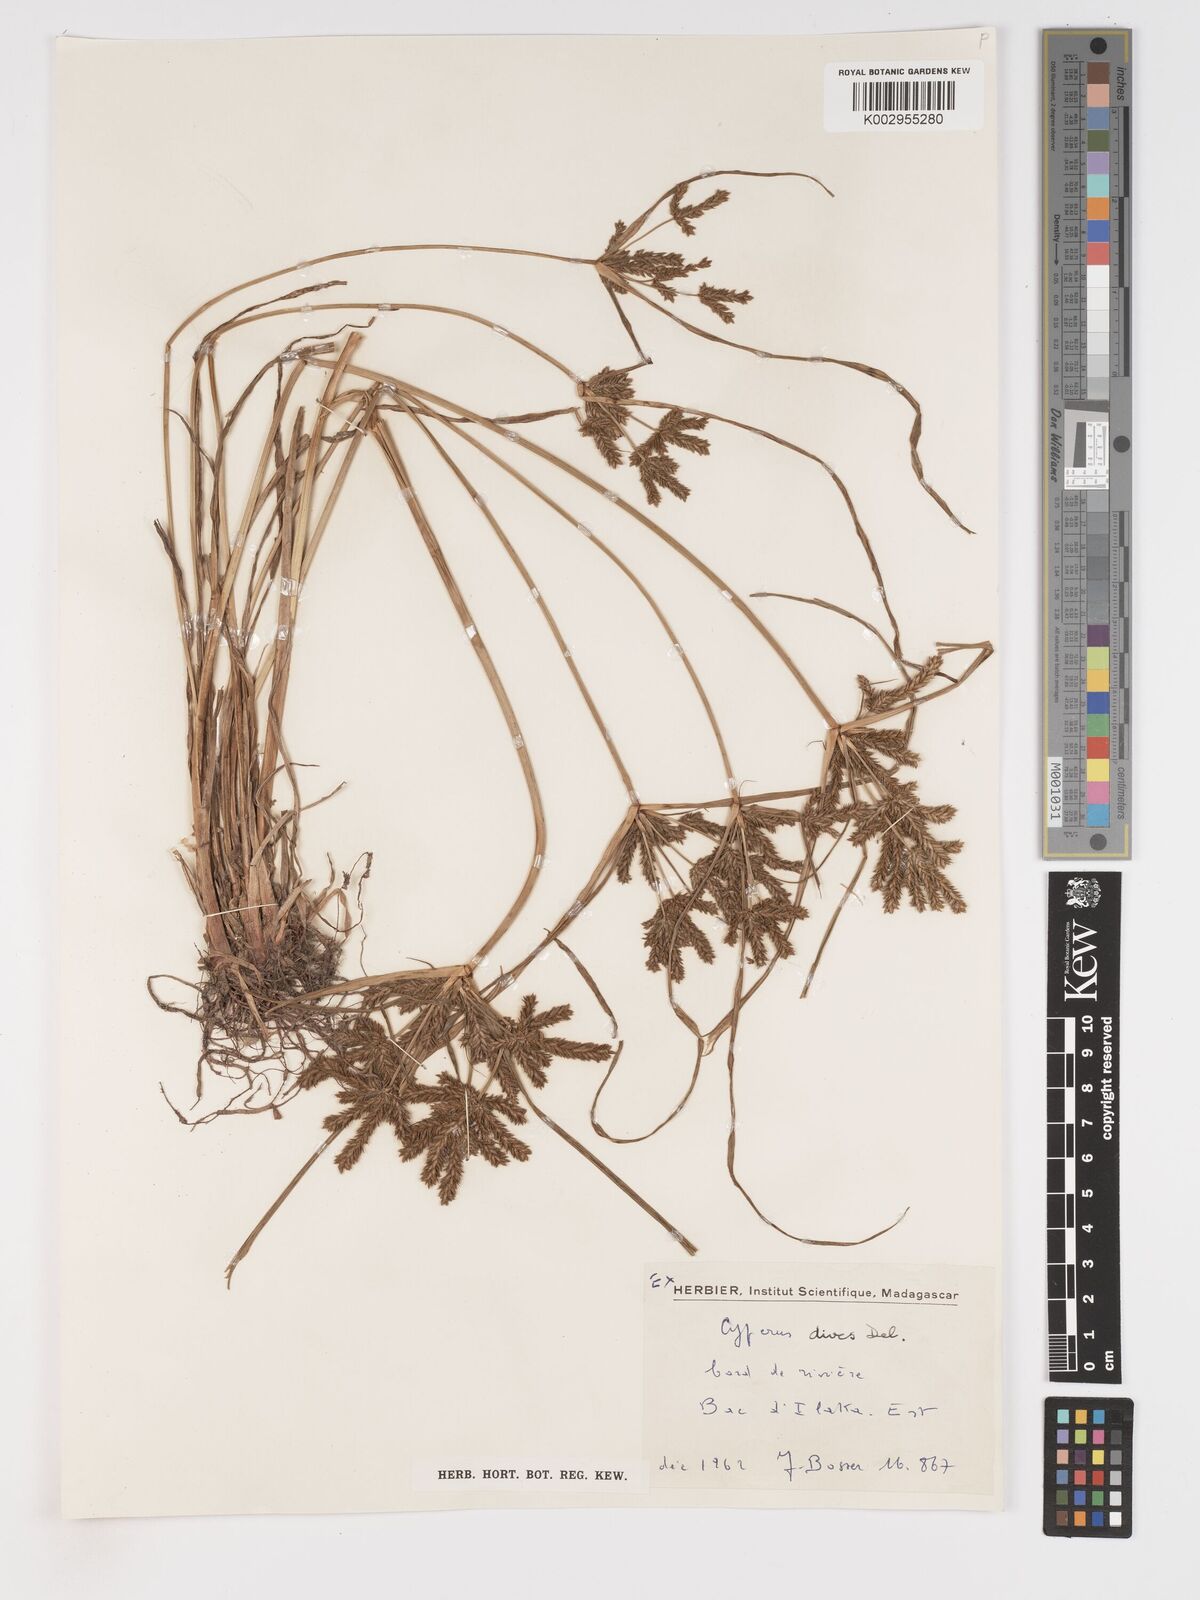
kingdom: Plantae
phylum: Tracheophyta
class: Liliopsida
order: Poales
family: Cyperaceae
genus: Cyperus
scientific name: Cyperus imbricatus
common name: Shingle flatsedge
